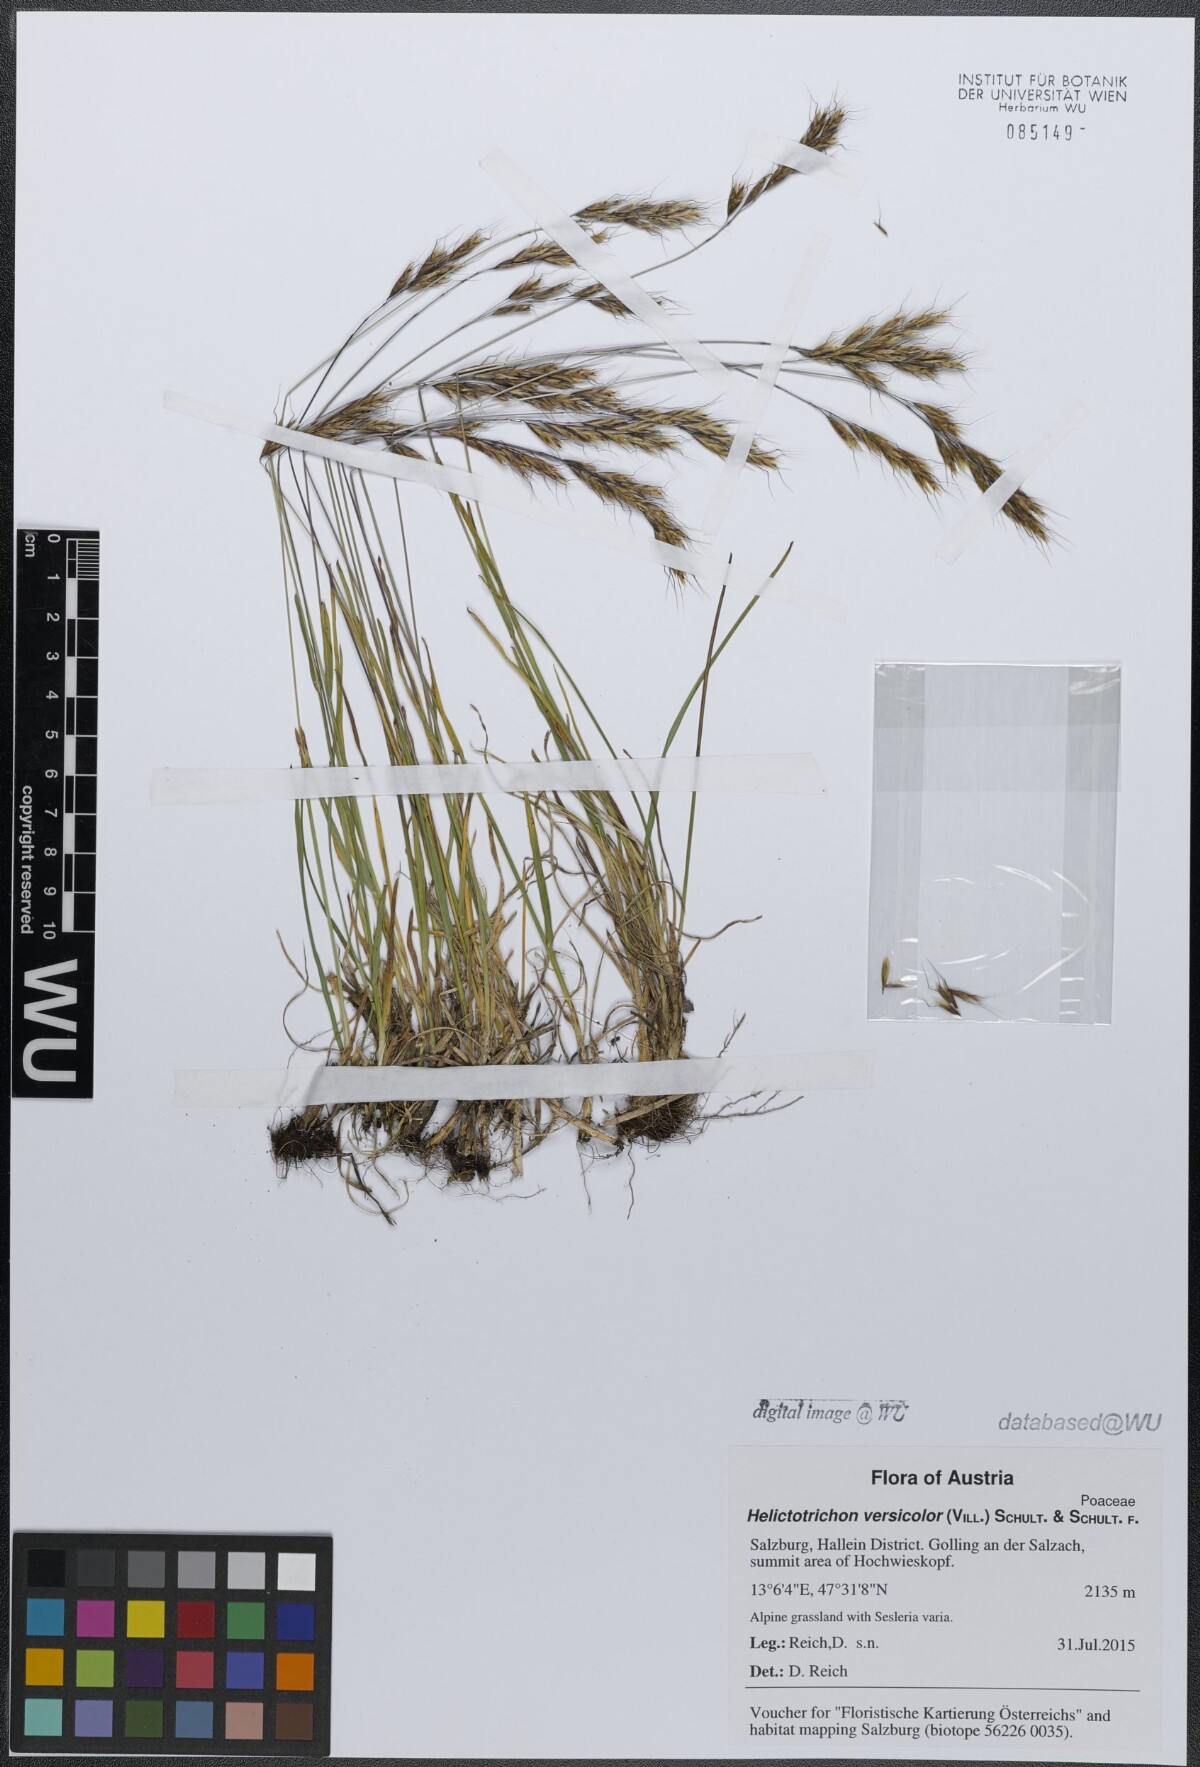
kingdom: Plantae
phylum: Tracheophyta
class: Liliopsida
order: Poales
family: Poaceae
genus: Helictochloa
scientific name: Helictochloa versicolor
